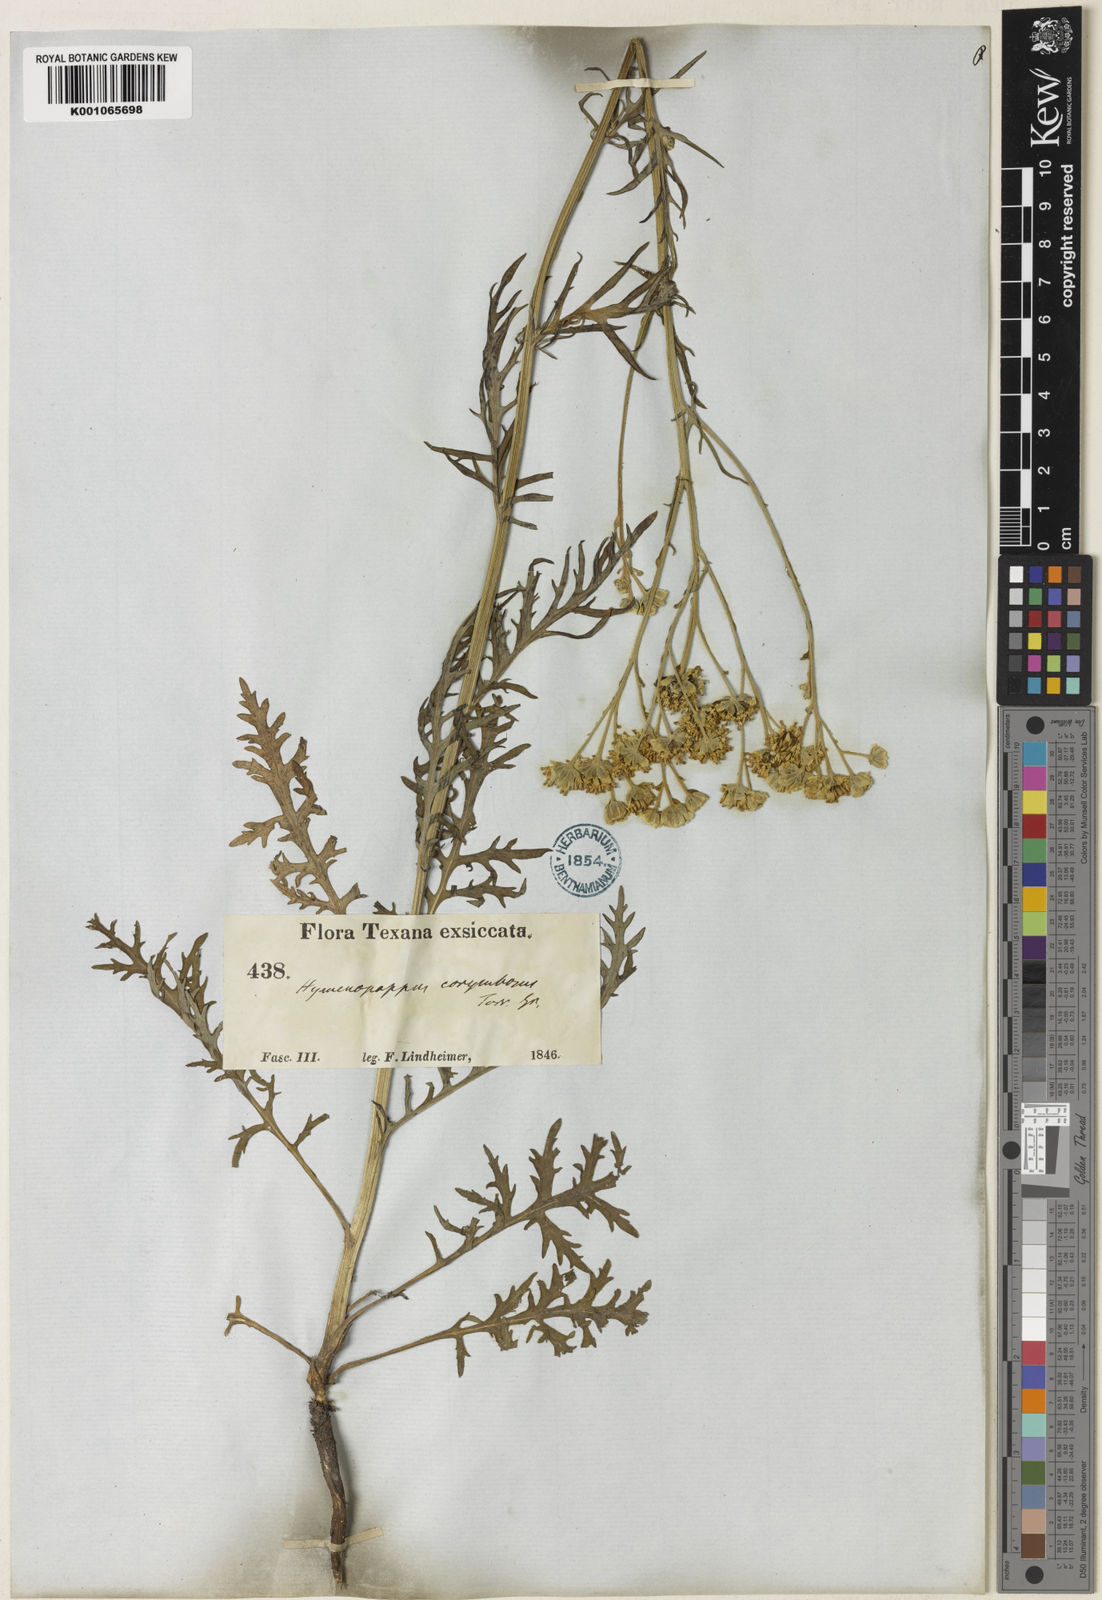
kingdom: Plantae
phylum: Tracheophyta
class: Magnoliopsida
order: Asterales
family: Asteraceae
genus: Hymenopappus
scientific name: Hymenopappus scabiosaeus
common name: Carolina woollywhite
